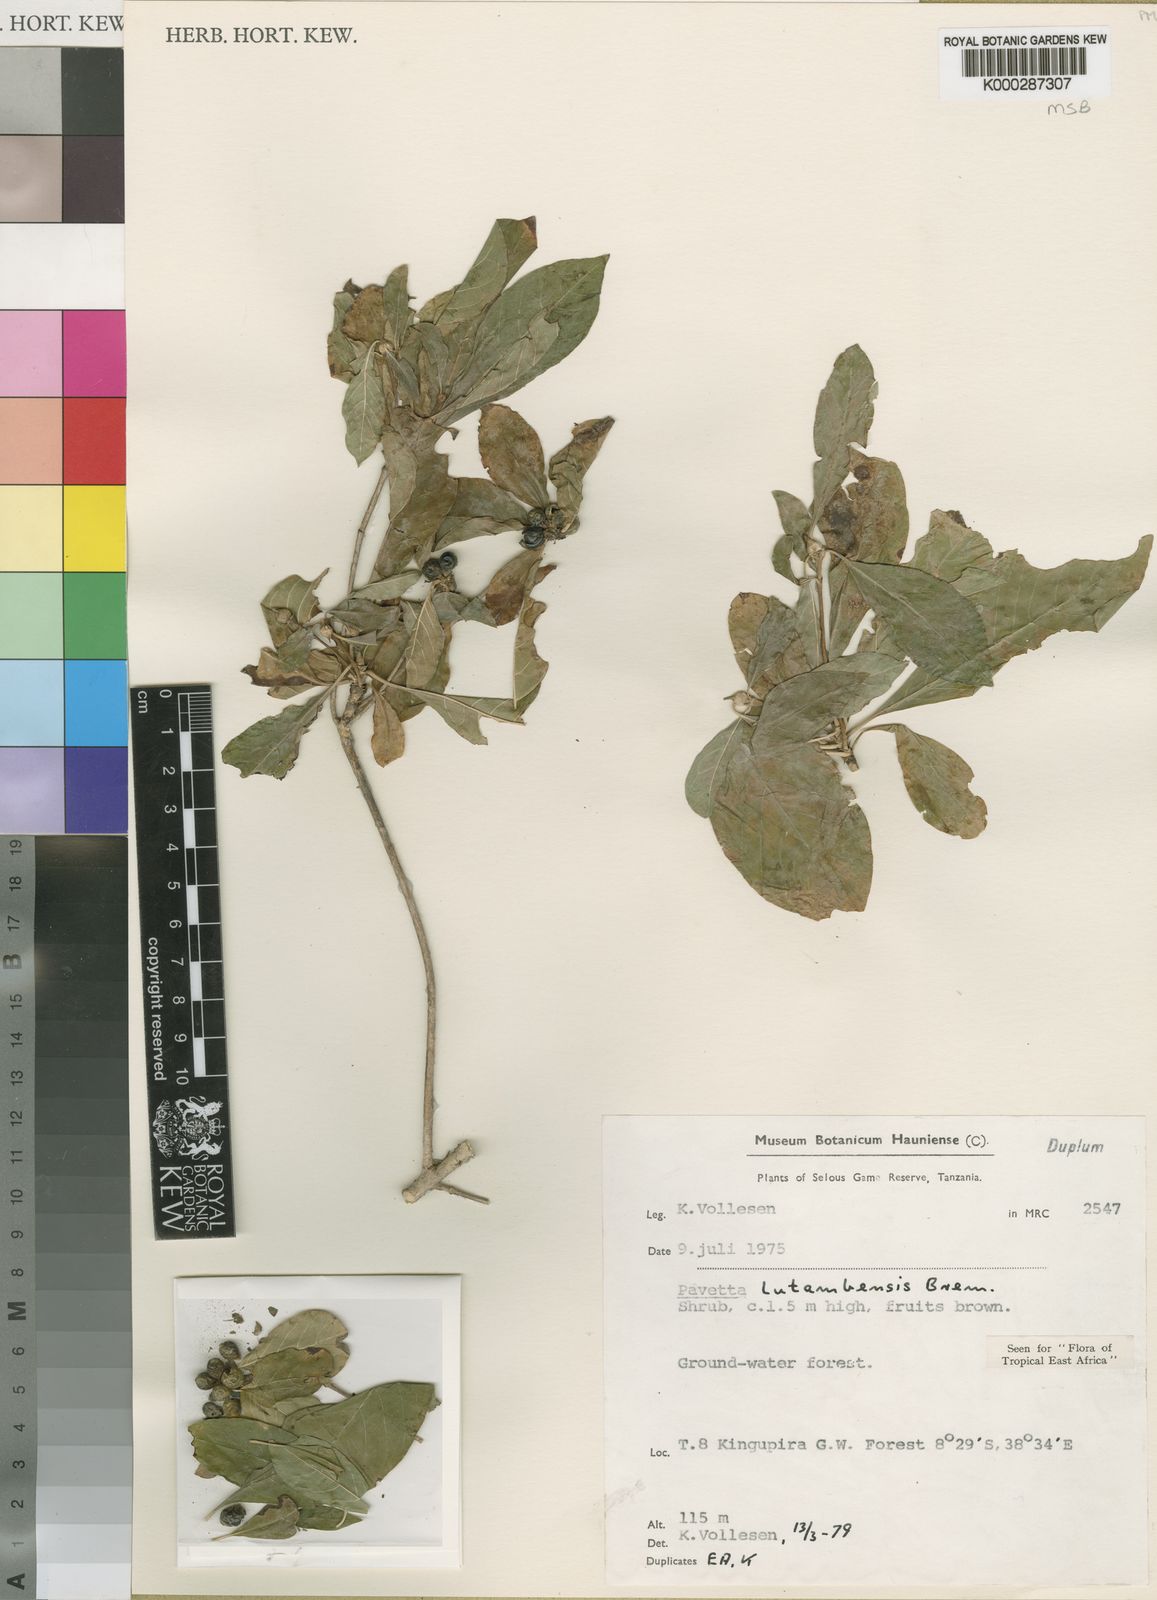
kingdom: Plantae
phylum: Tracheophyta
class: Magnoliopsida
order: Gentianales
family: Rubiaceae
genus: Pavetta
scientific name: Pavetta lutambensis
